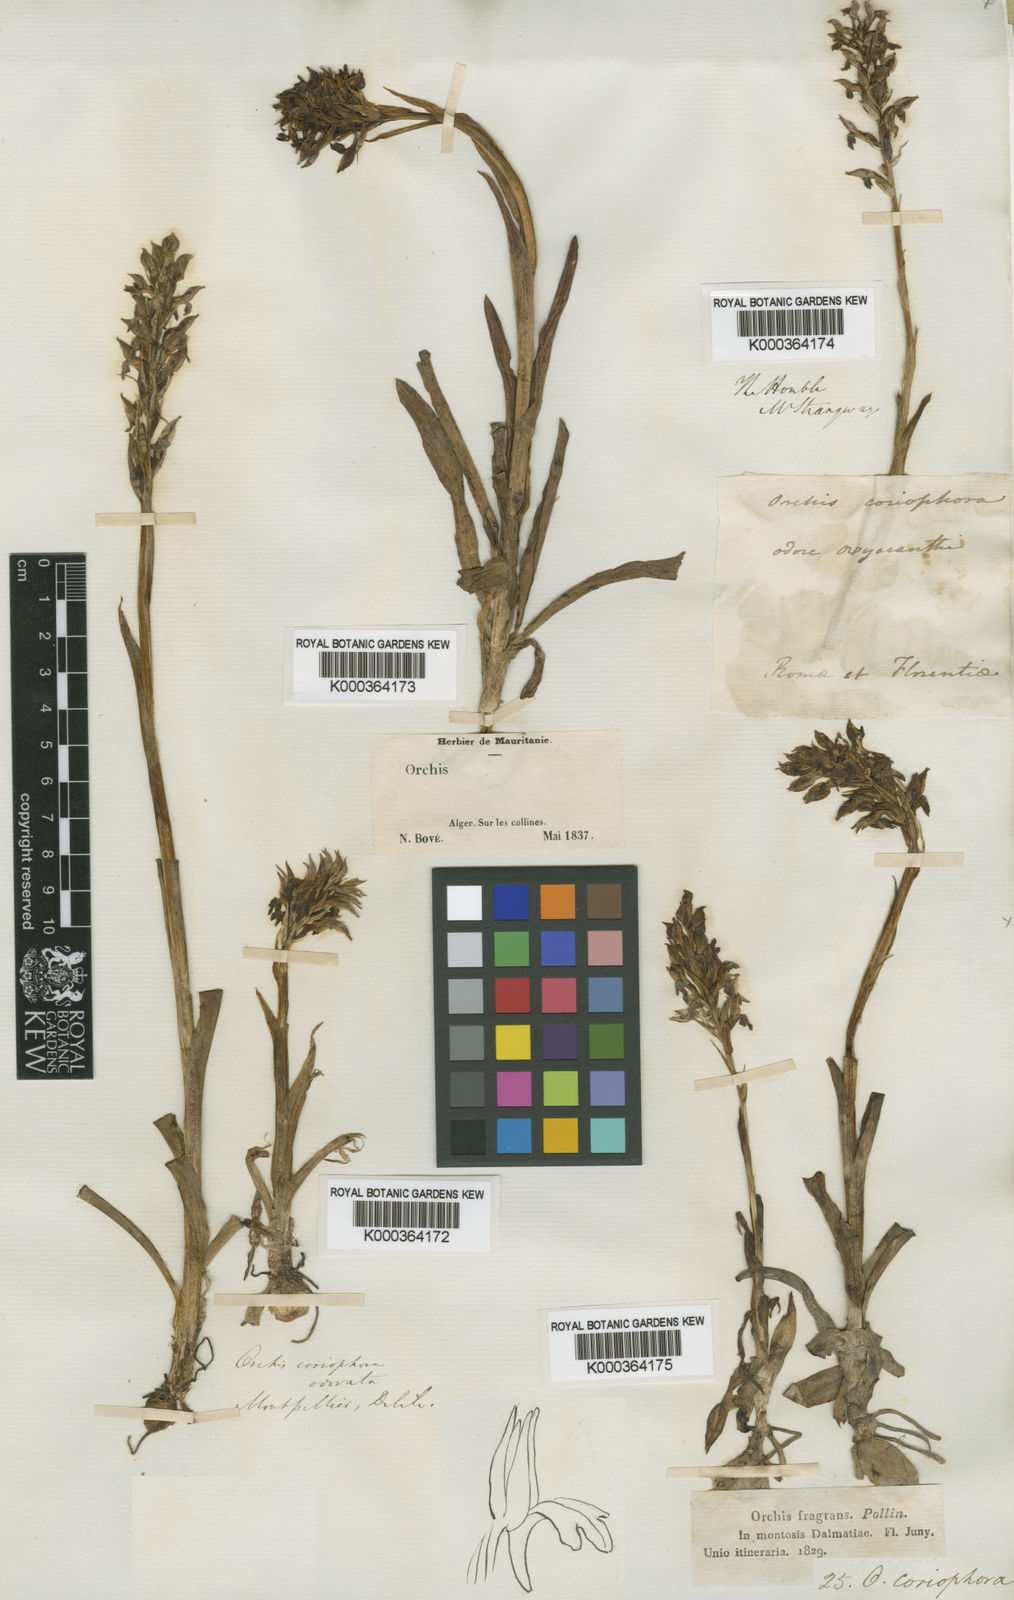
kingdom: Plantae
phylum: Tracheophyta
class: Liliopsida
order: Asparagales
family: Orchidaceae
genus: Anacamptis
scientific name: Anacamptis coriophora
